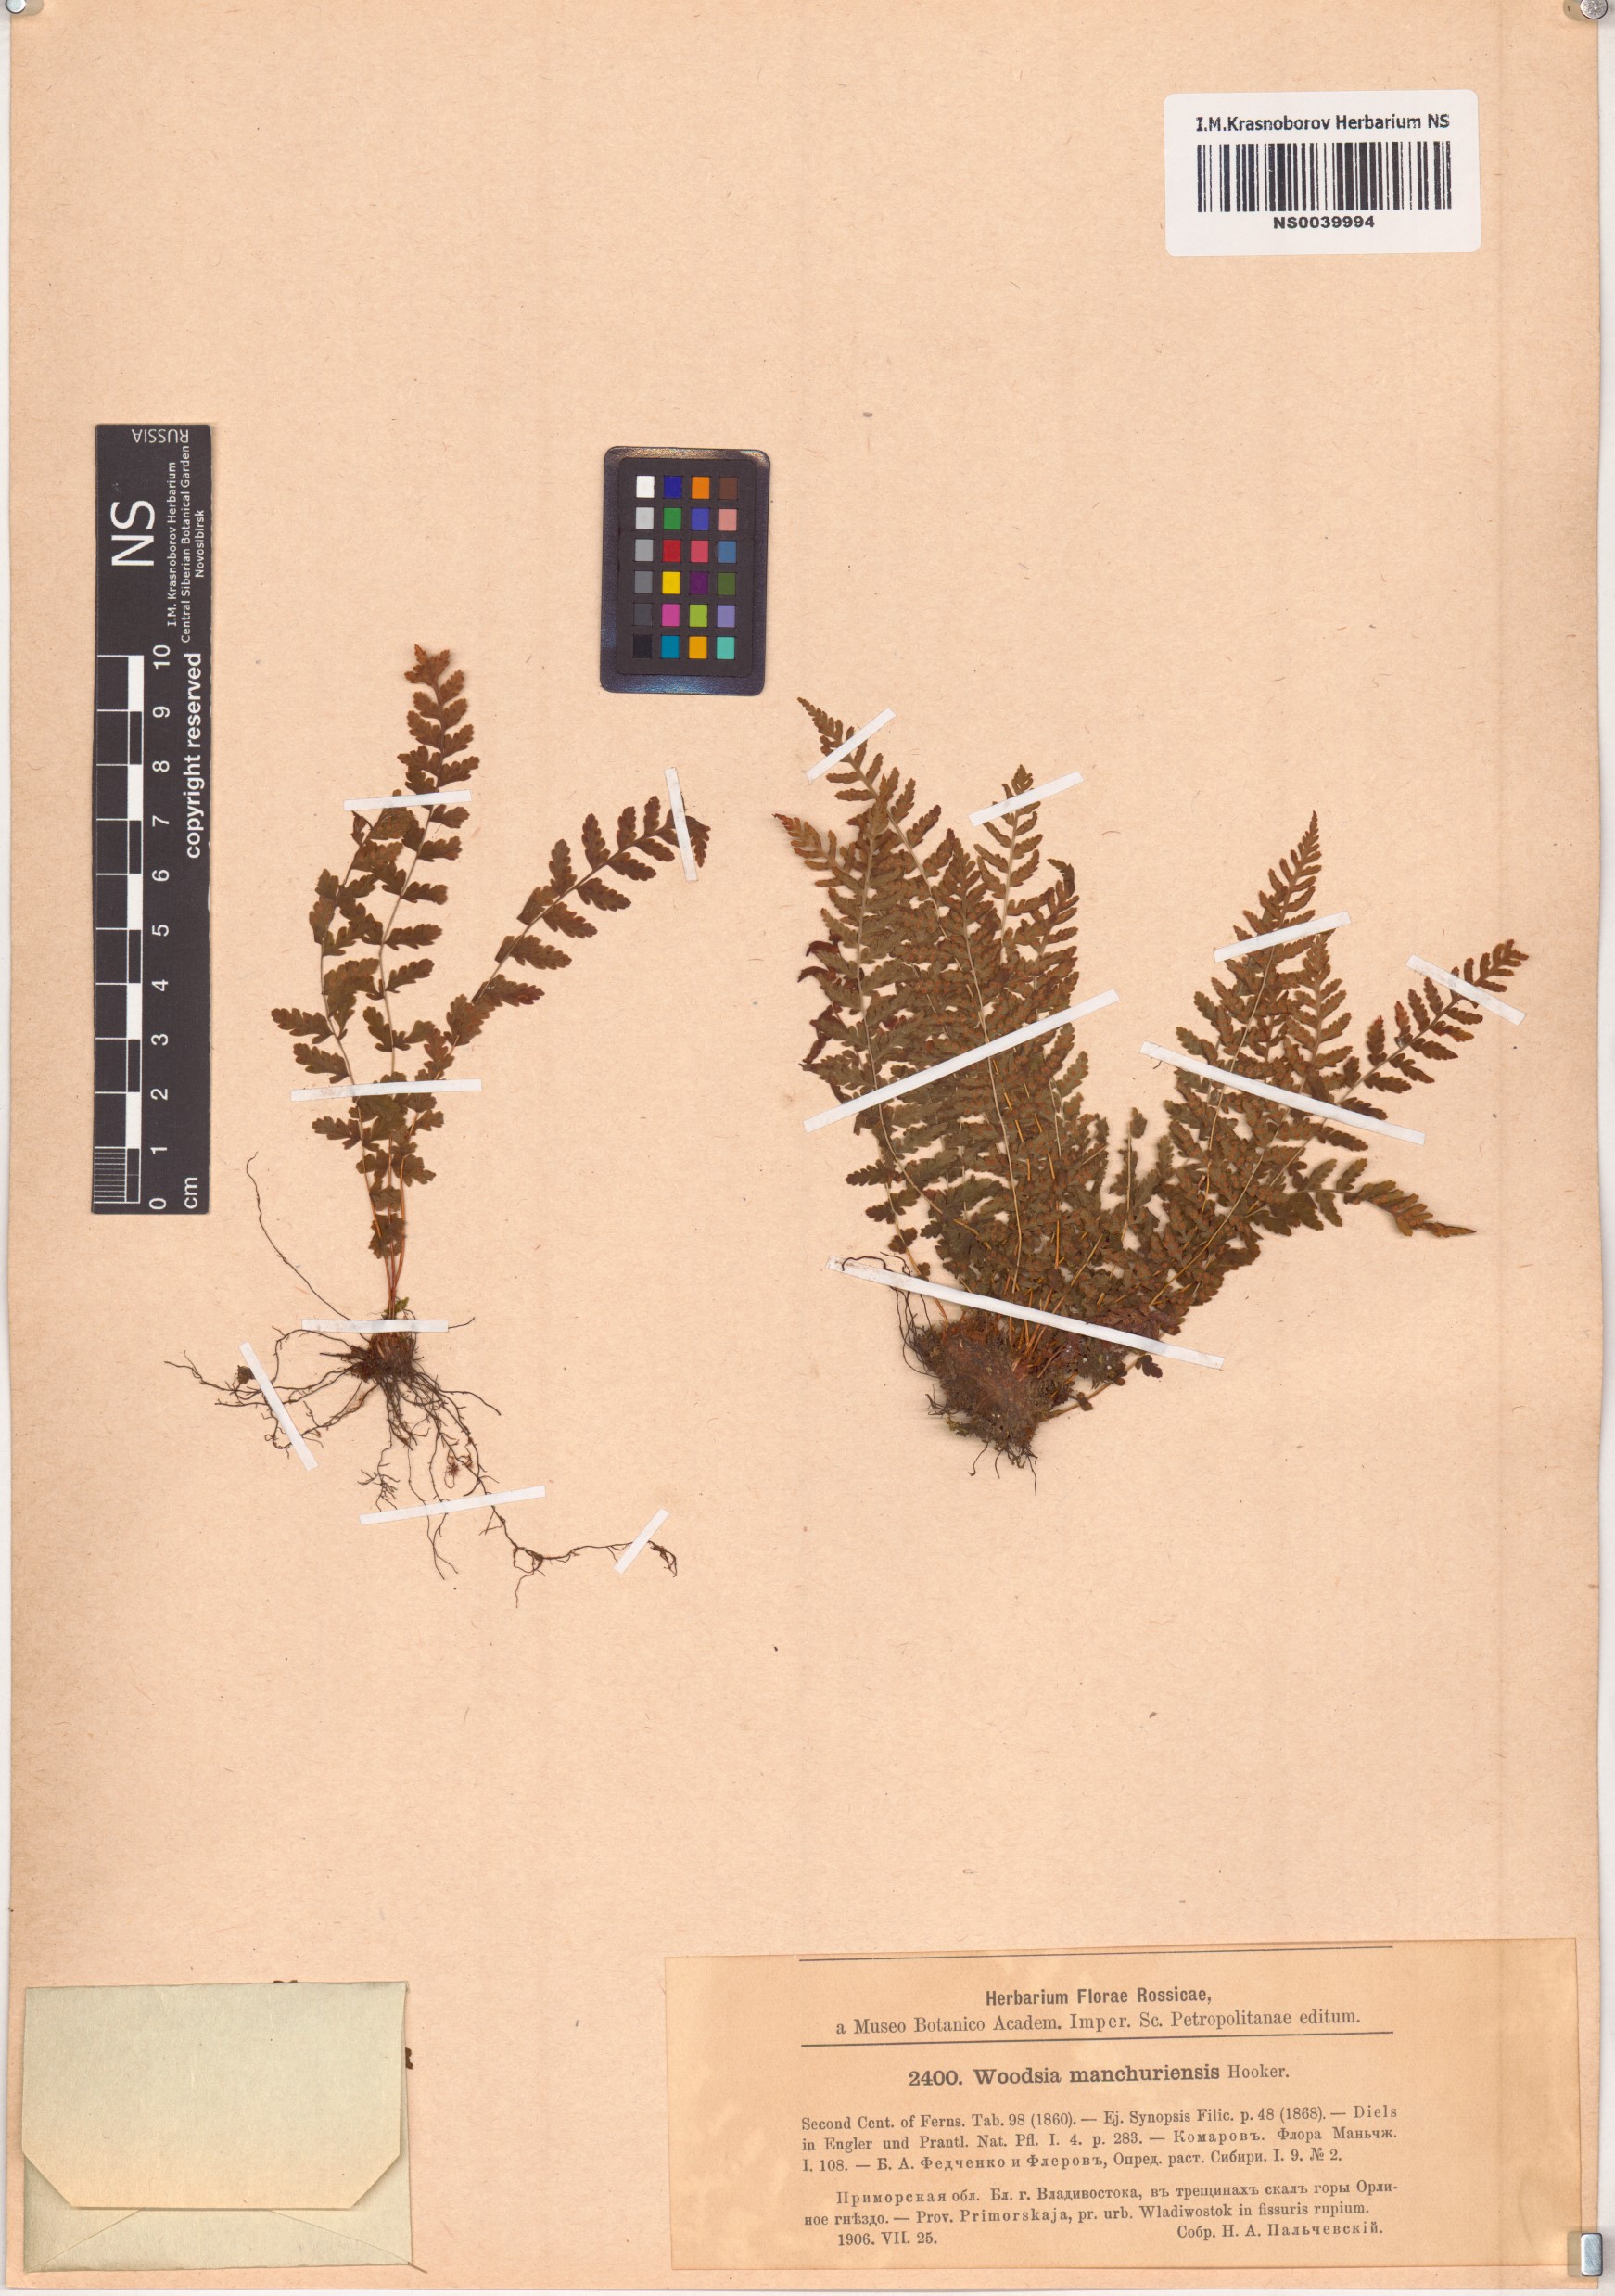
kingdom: Plantae
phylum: Tracheophyta
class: Polypodiopsida
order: Polypodiales
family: Woodsiaceae
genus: Physematium
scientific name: Physematium manchuriense
